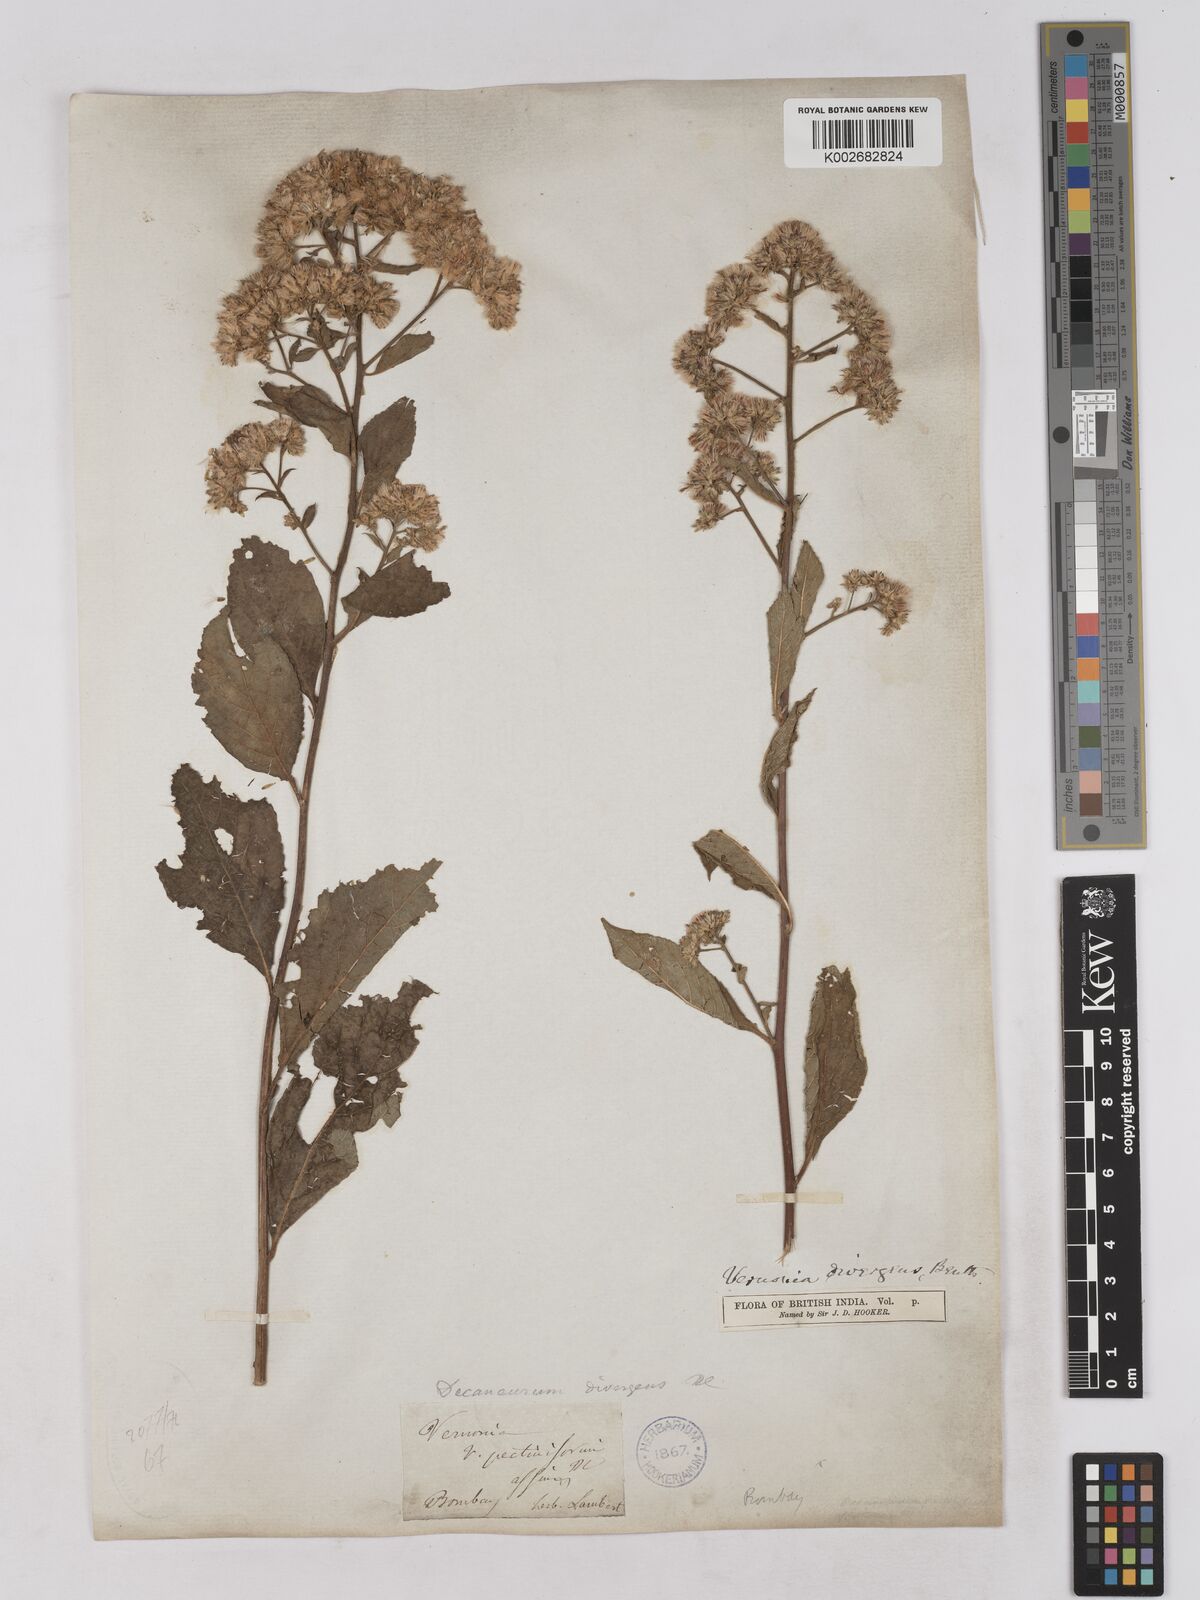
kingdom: Plantae
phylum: Tracheophyta
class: Magnoliopsida
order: Asterales
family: Asteraceae
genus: Acilepis
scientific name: Acilepis divergens
